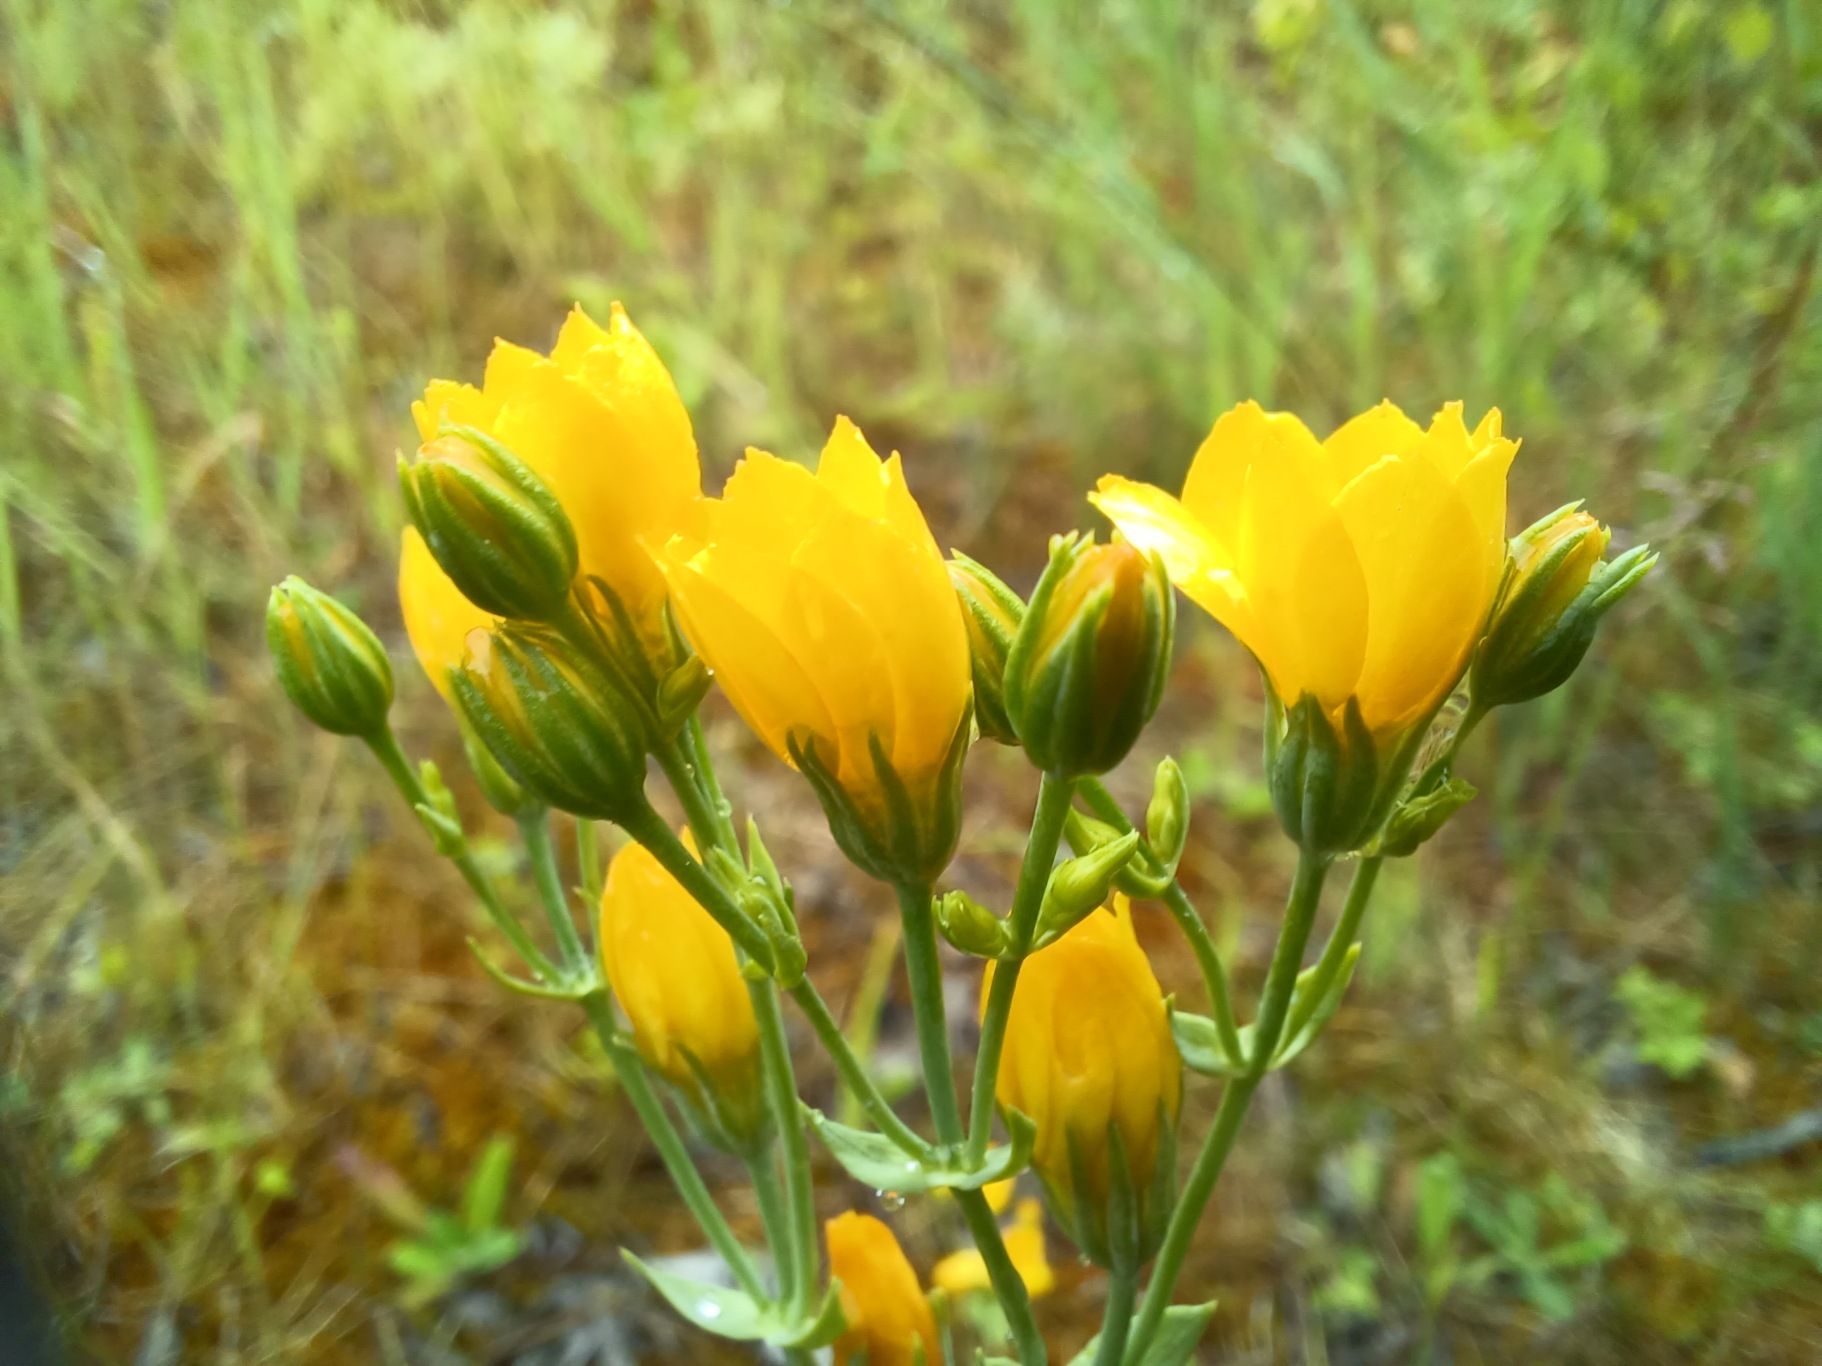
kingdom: Plantae
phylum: Tracheophyta
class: Magnoliopsida
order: Gentianales
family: Gentianaceae
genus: Blackstonia
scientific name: Blackstonia perfoliata
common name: Almindelig gyldenurt
